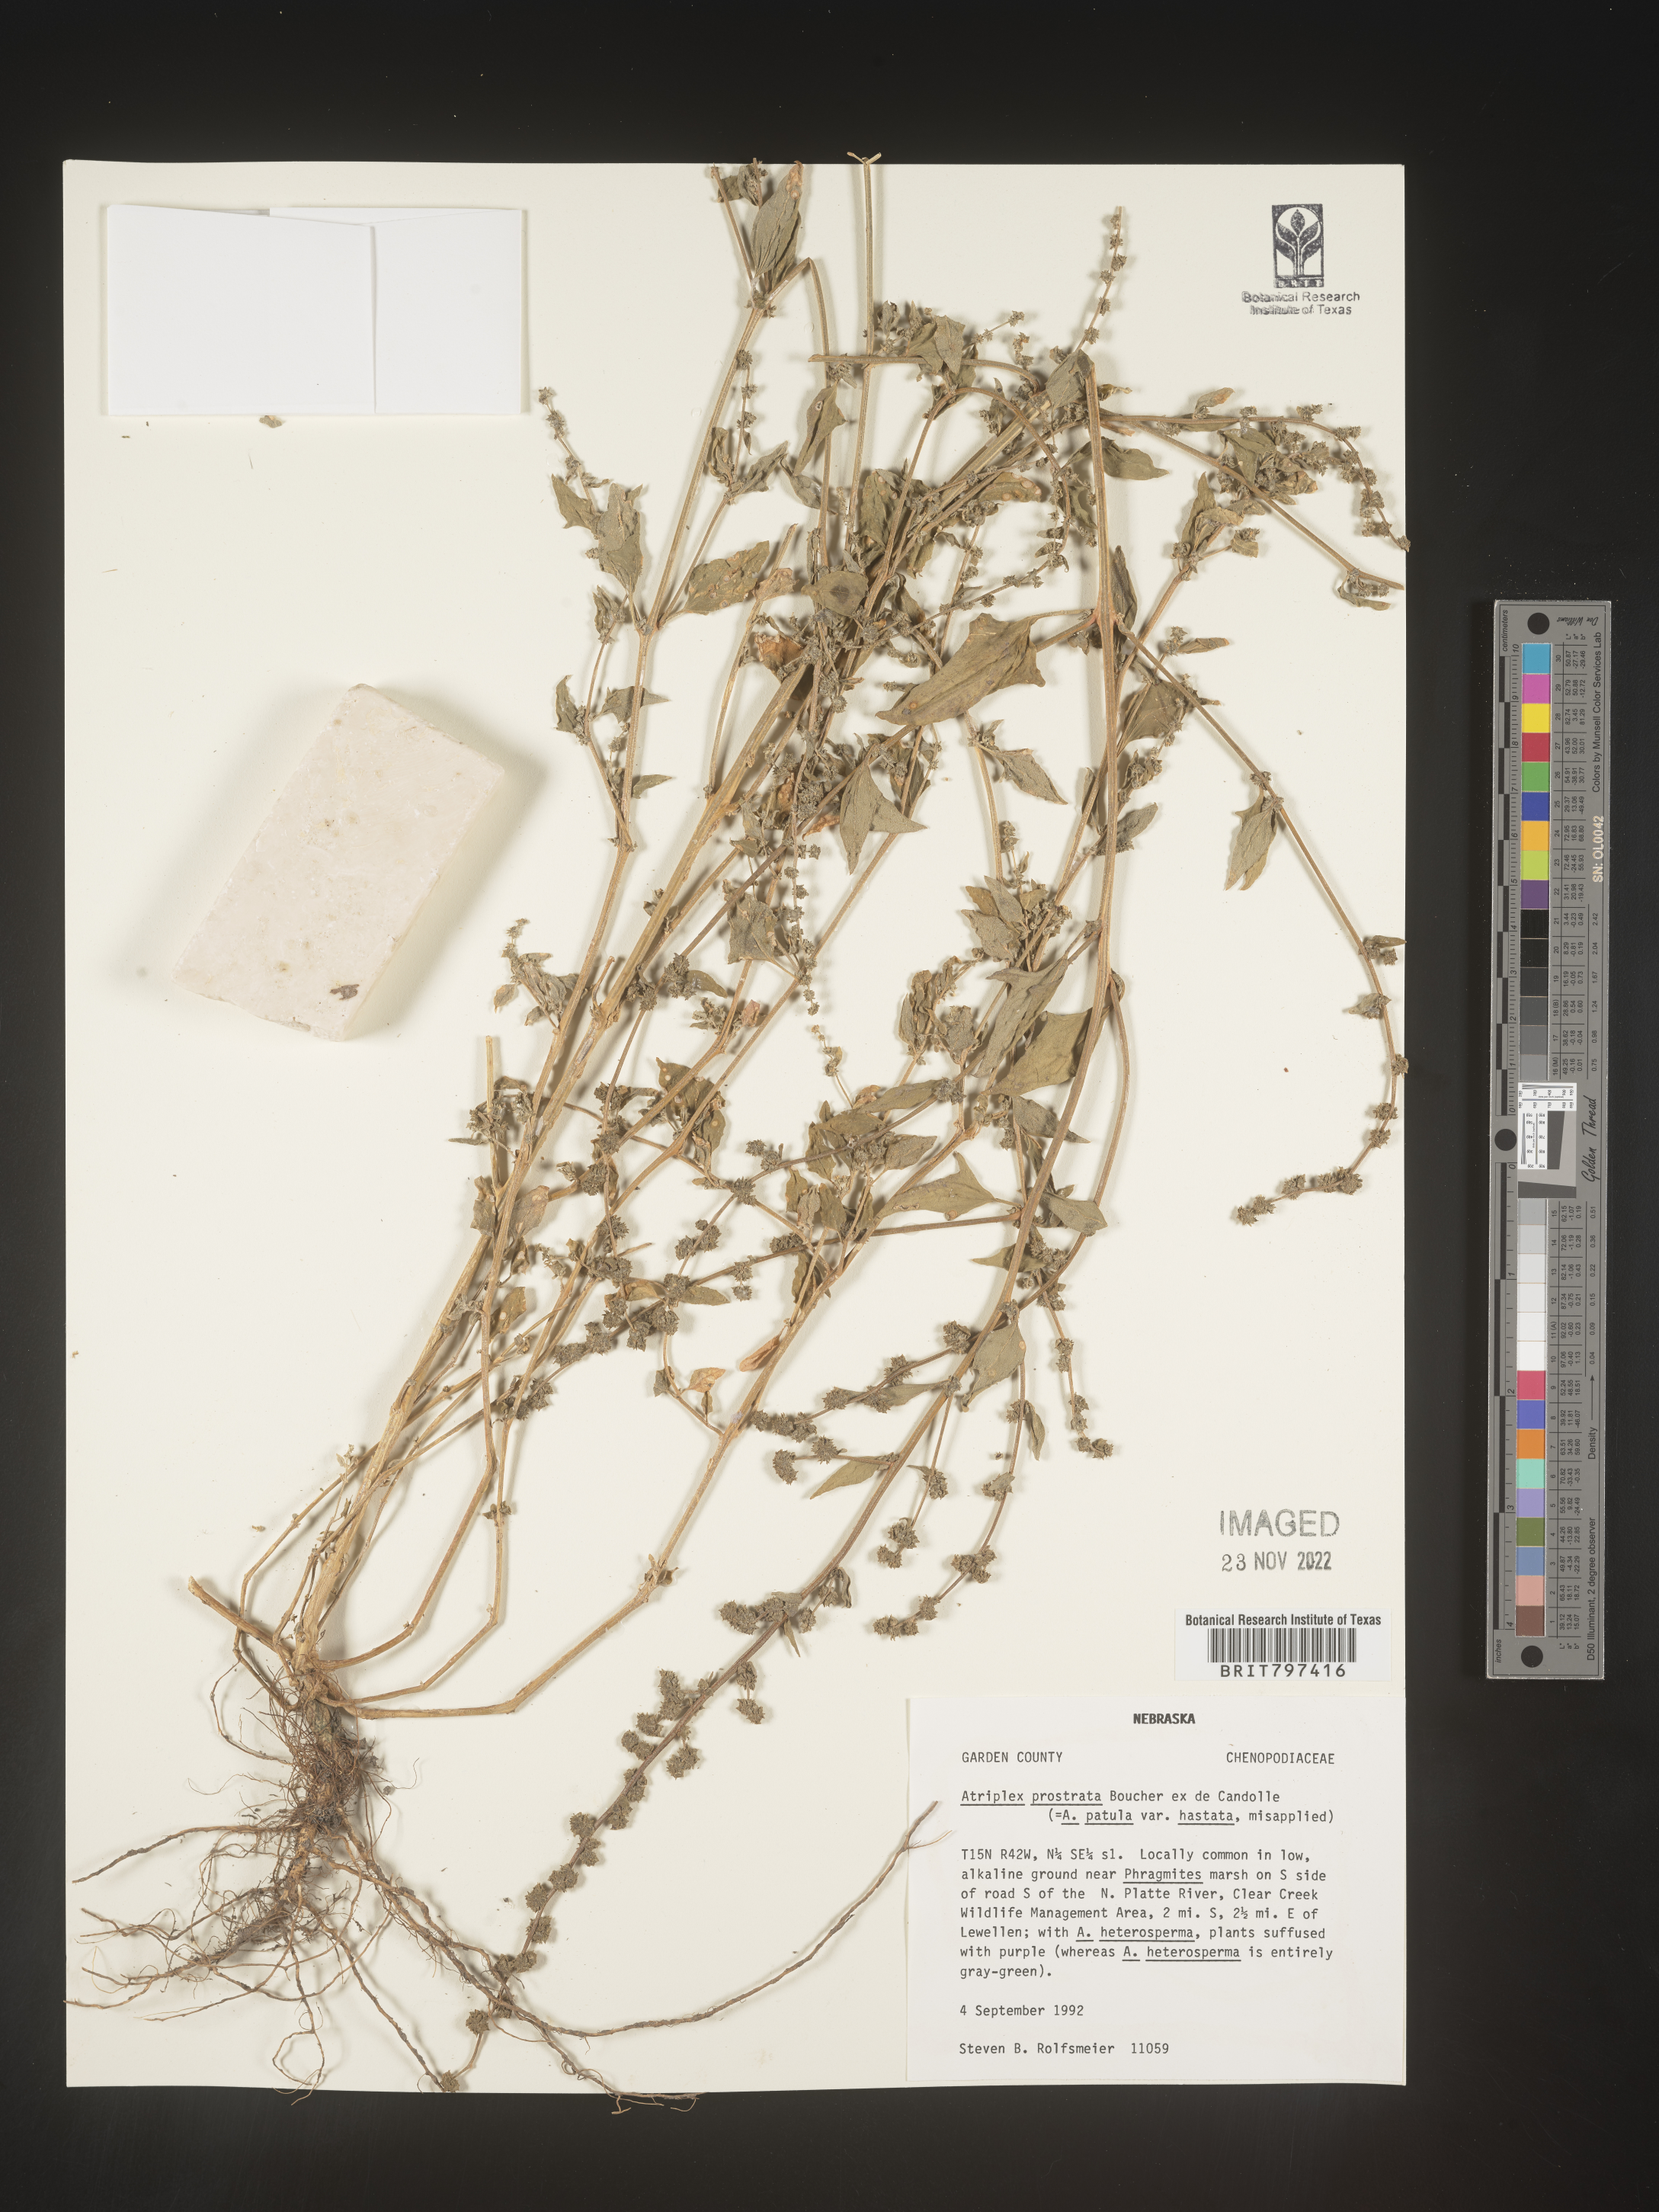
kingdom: Plantae
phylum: Tracheophyta
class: Magnoliopsida
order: Caryophyllales
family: Amaranthaceae
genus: Atriplex
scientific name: Atriplex prostrata
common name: Spear-leaved orache
